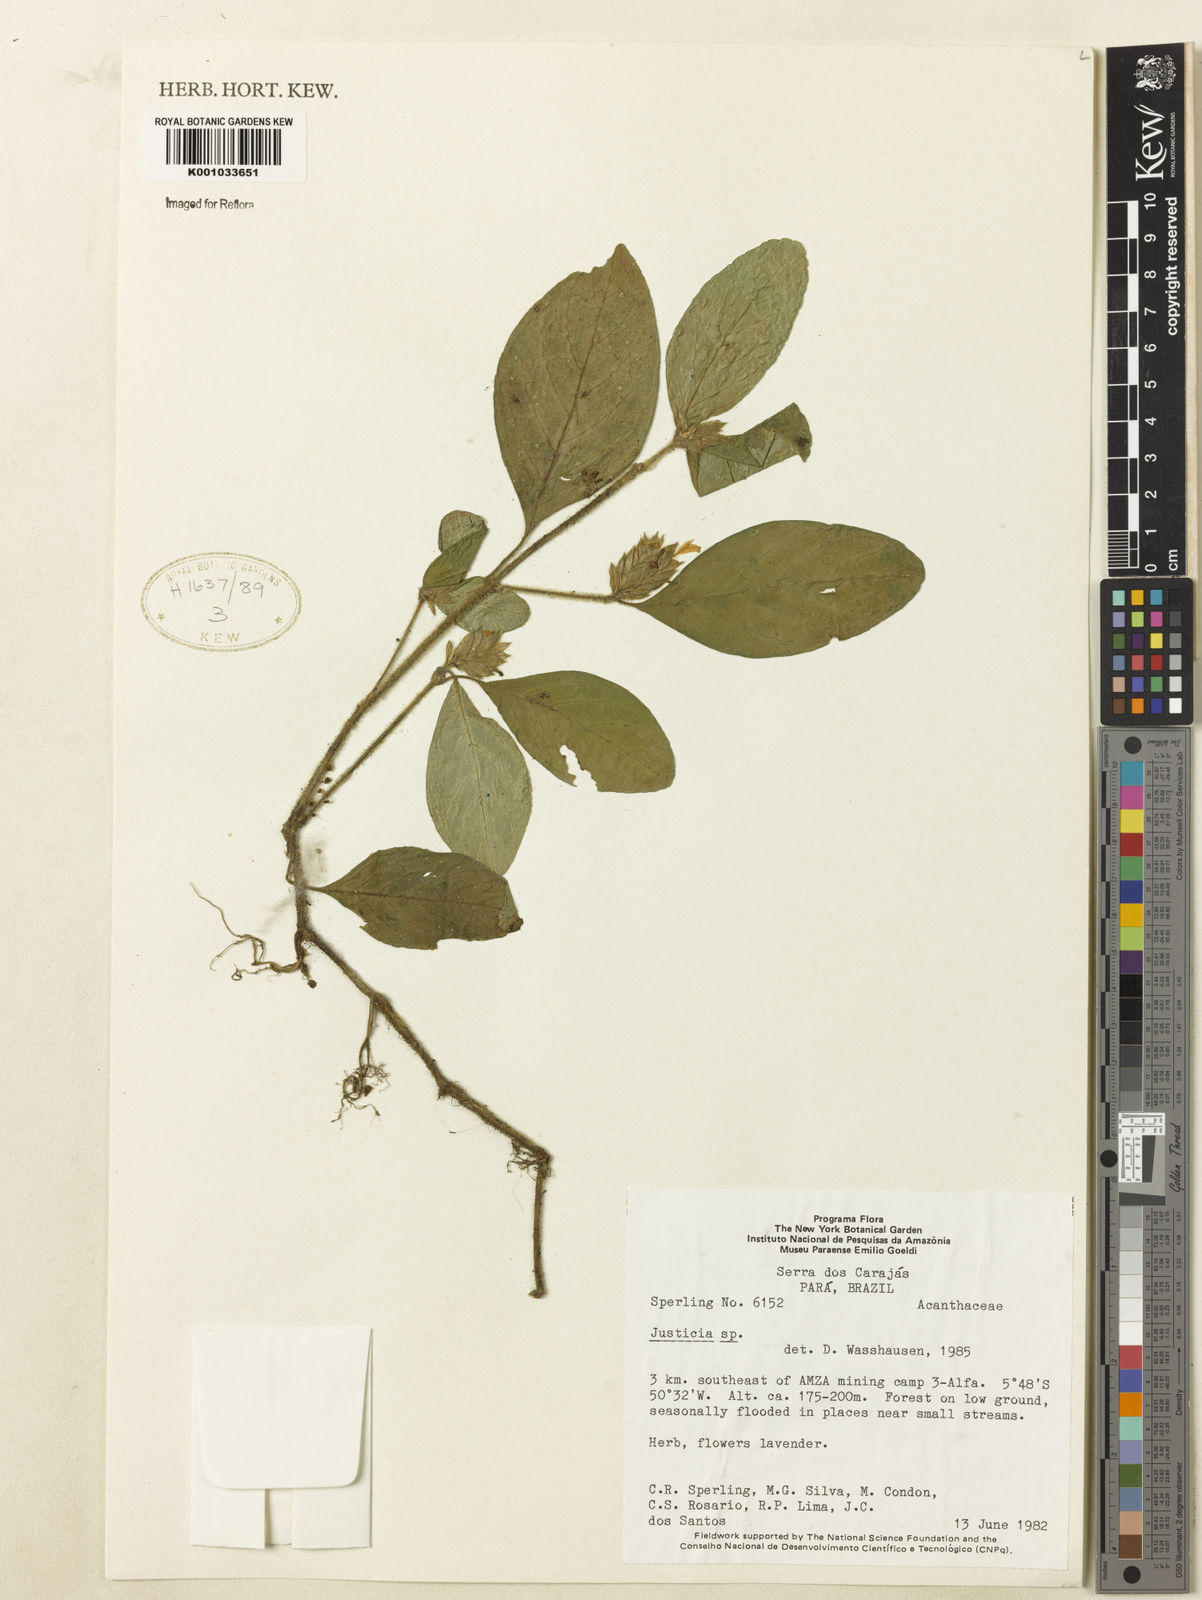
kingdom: Plantae
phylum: Tracheophyta
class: Magnoliopsida
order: Lamiales
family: Acanthaceae
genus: Justicia
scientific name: Justicia
